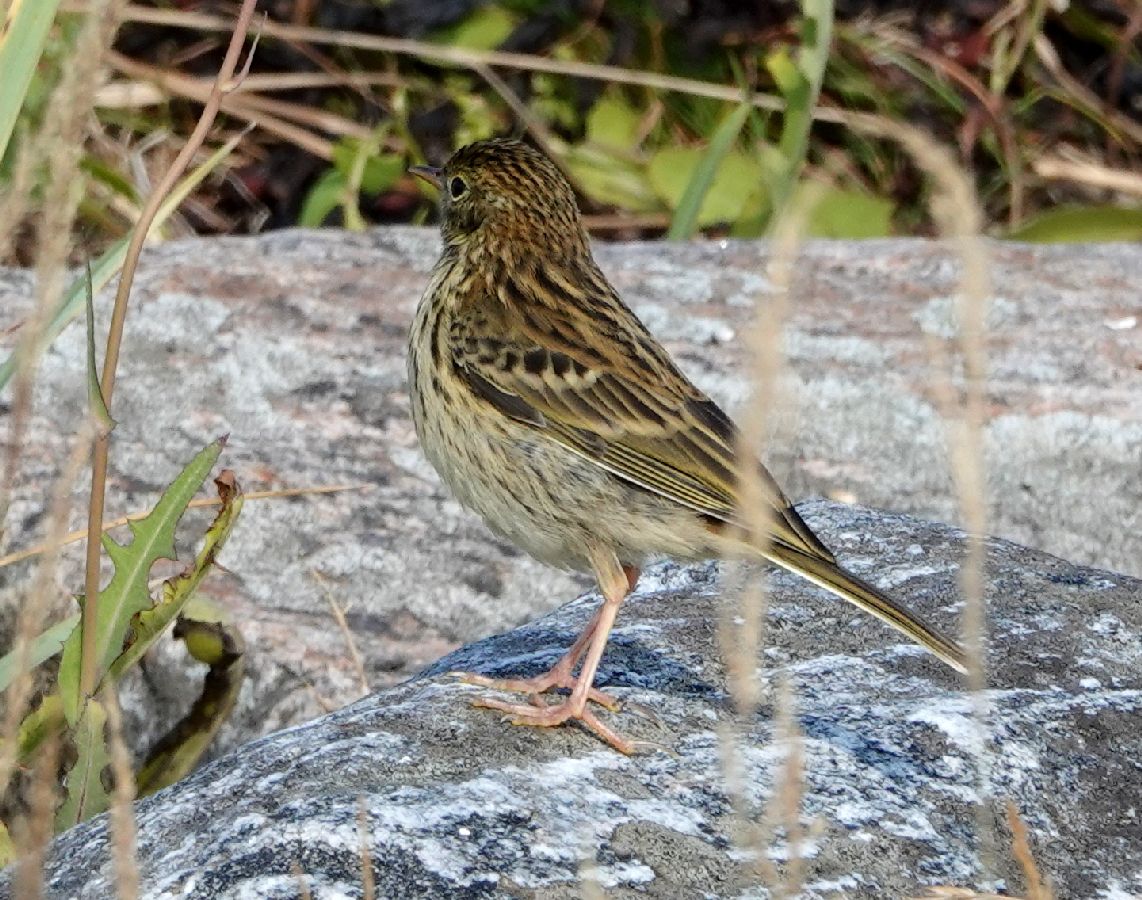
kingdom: Animalia
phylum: Chordata
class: Aves
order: Passeriformes
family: Motacillidae
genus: Anthus
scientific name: Anthus pratensis
